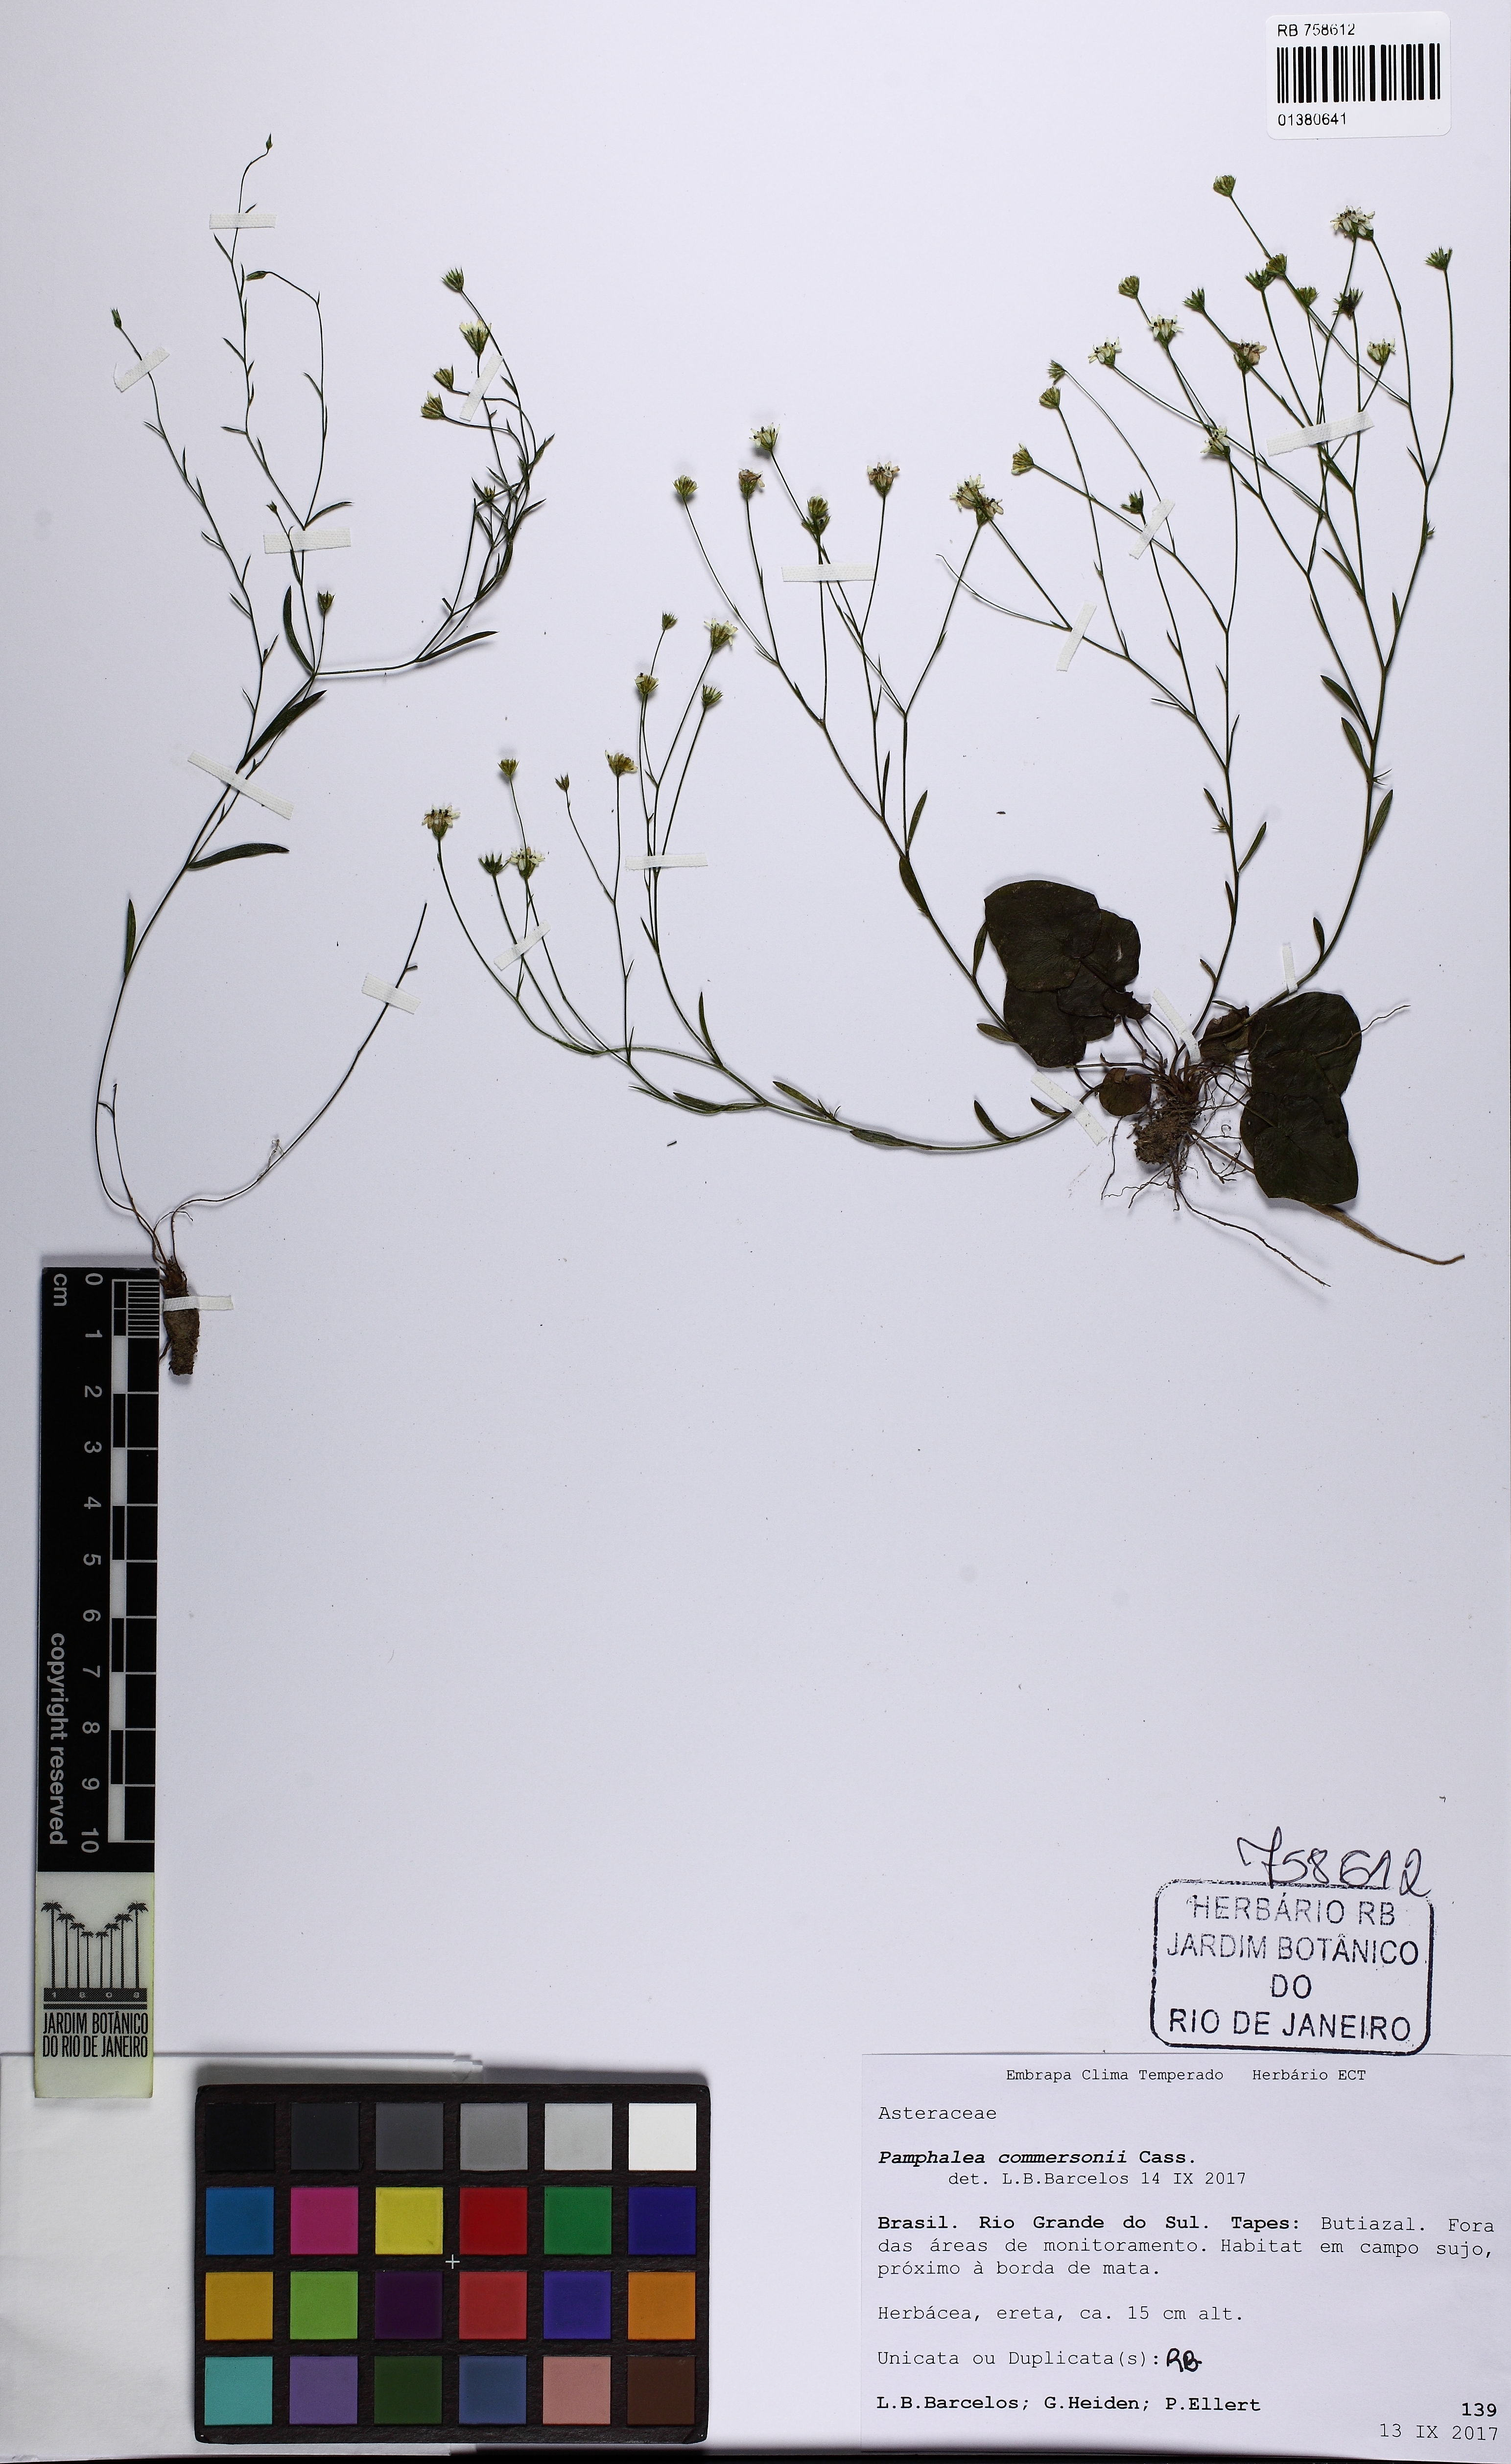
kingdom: Plantae
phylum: Tracheophyta
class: Magnoliopsida
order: Asterales
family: Asteraceae
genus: Panphalea
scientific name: Panphalea commersonii
